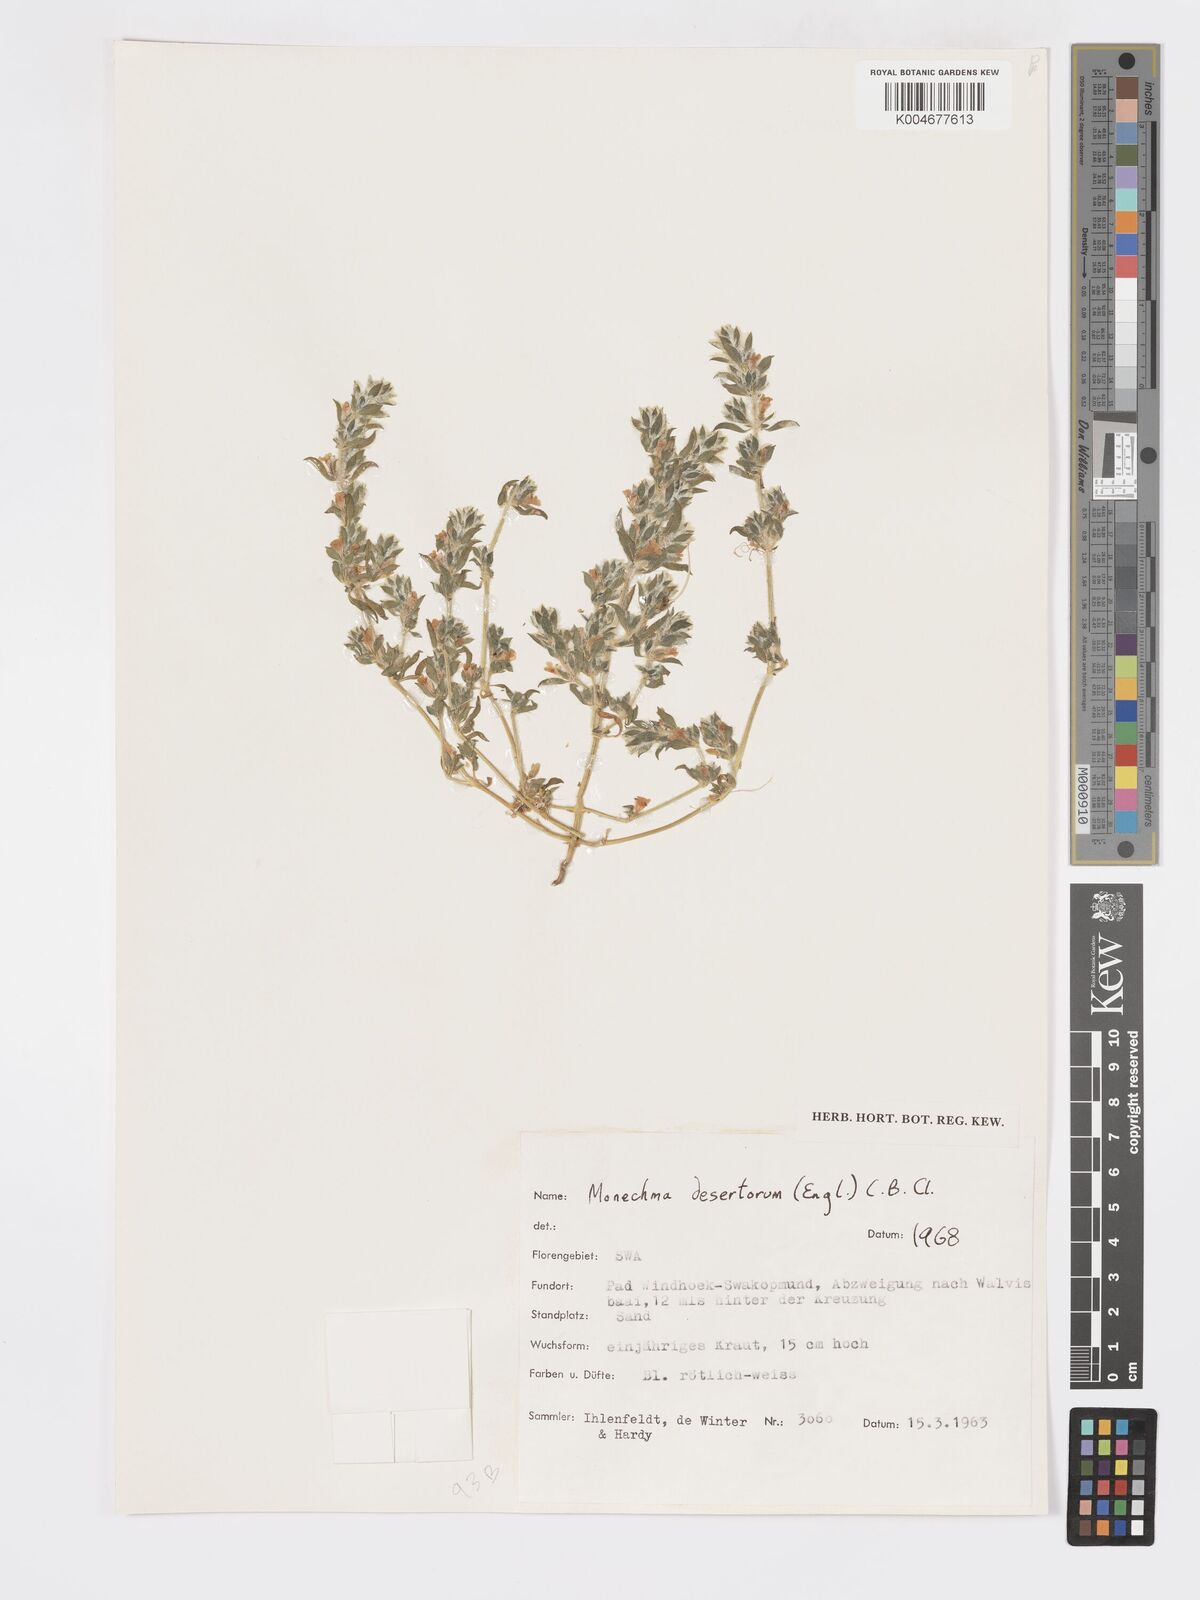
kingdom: Plantae
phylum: Tracheophyta
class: Magnoliopsida
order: Lamiales
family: Acanthaceae
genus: Pogonospermum
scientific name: Pogonospermum
